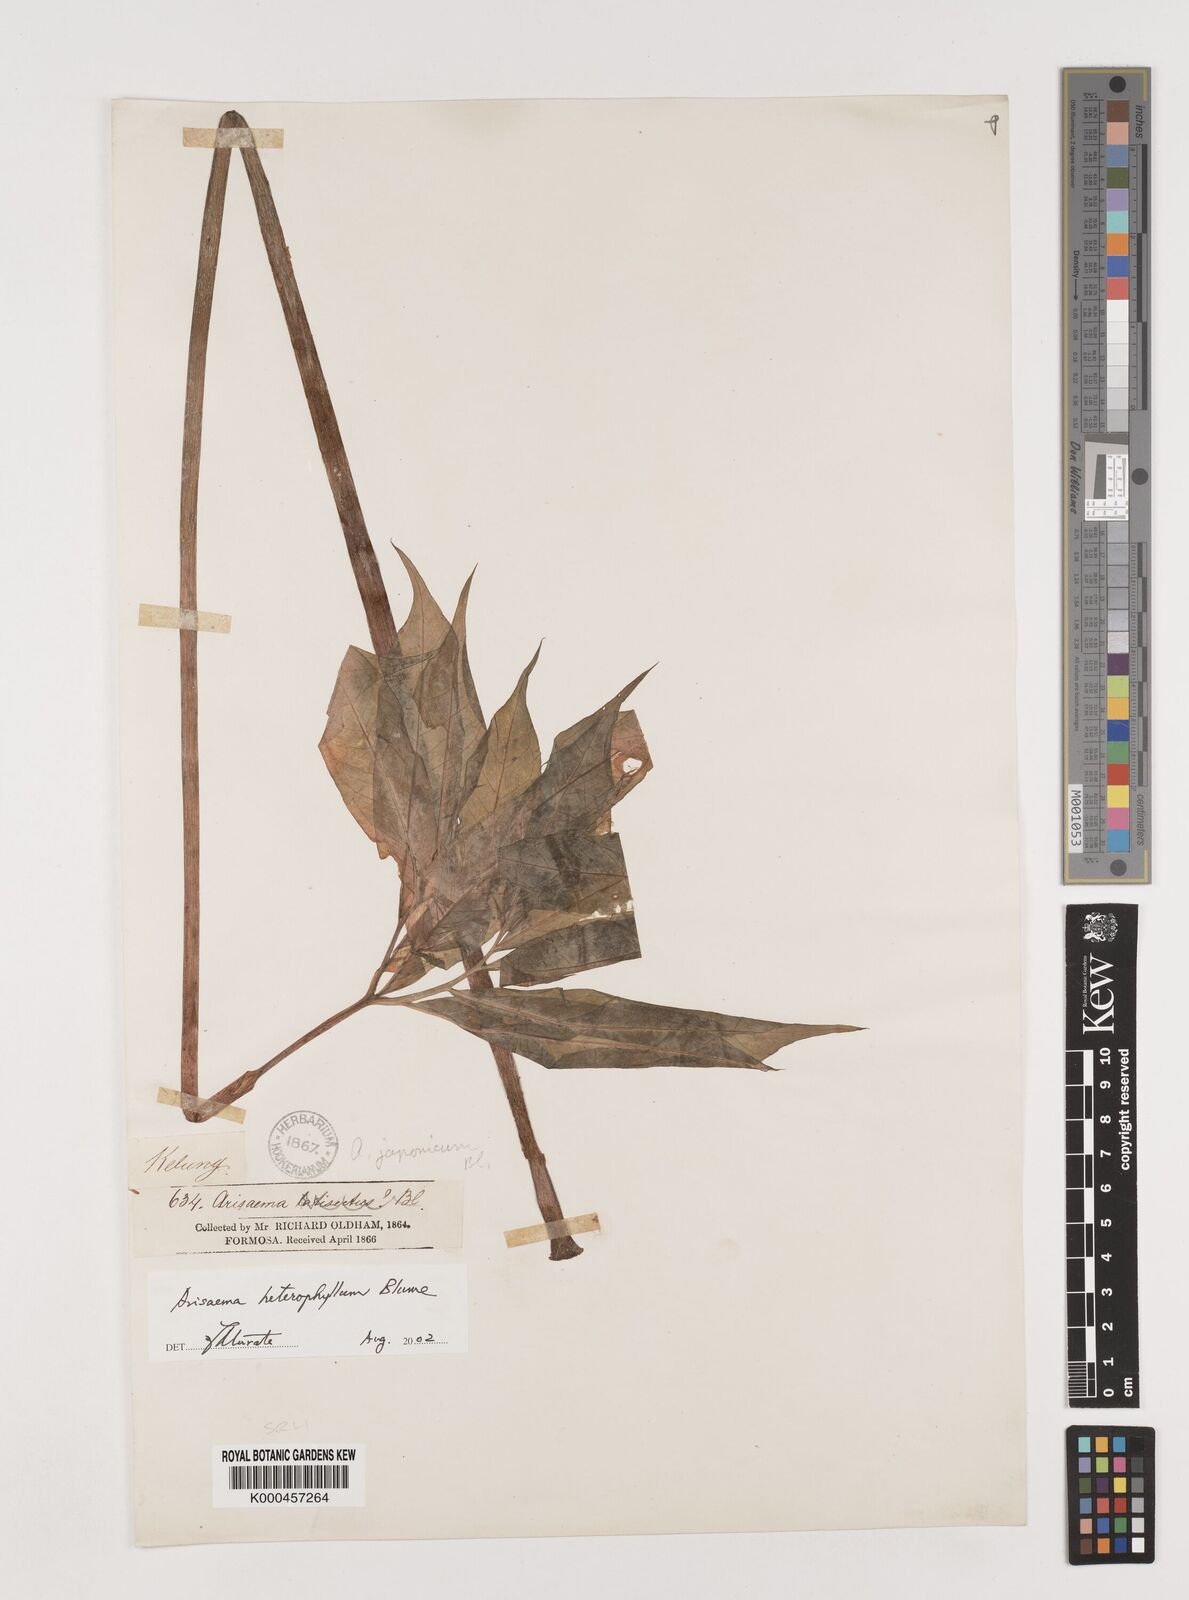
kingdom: Plantae
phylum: Tracheophyta
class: Liliopsida
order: Alismatales
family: Araceae
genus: Arisaema
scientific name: Arisaema heterophyllum
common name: Dancing crane cobra lily
